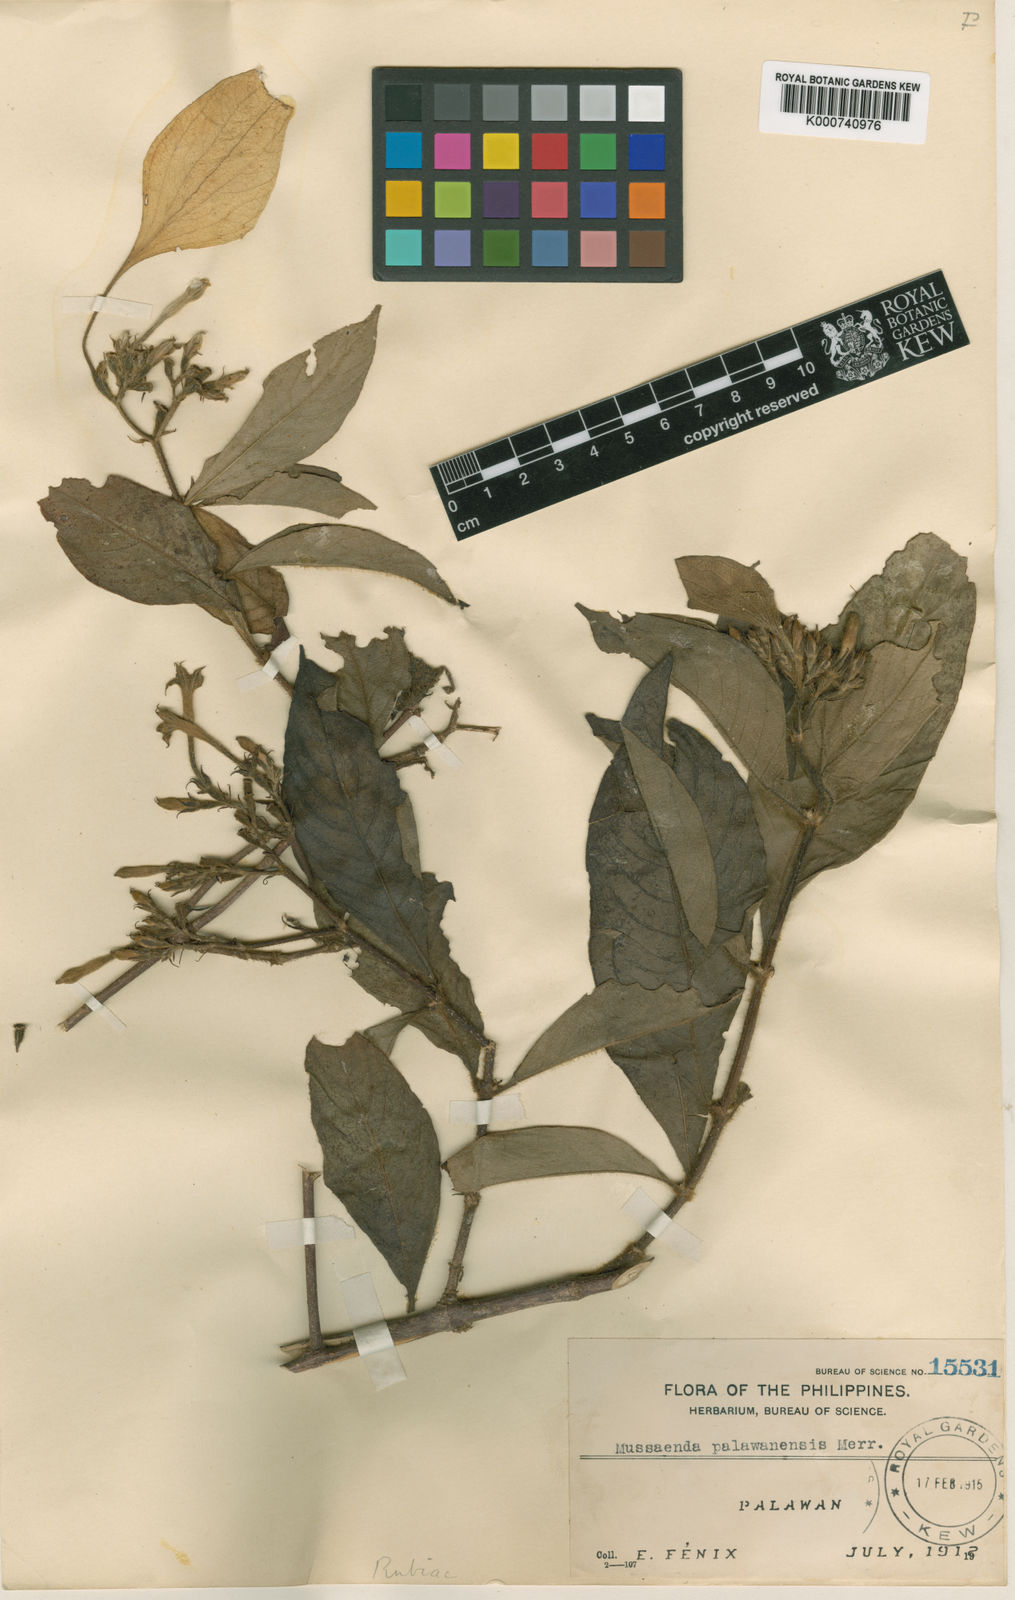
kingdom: Plantae
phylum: Tracheophyta
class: Magnoliopsida
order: Gentianales
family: Rubiaceae
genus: Mussaenda
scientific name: Mussaenda palawanensis
